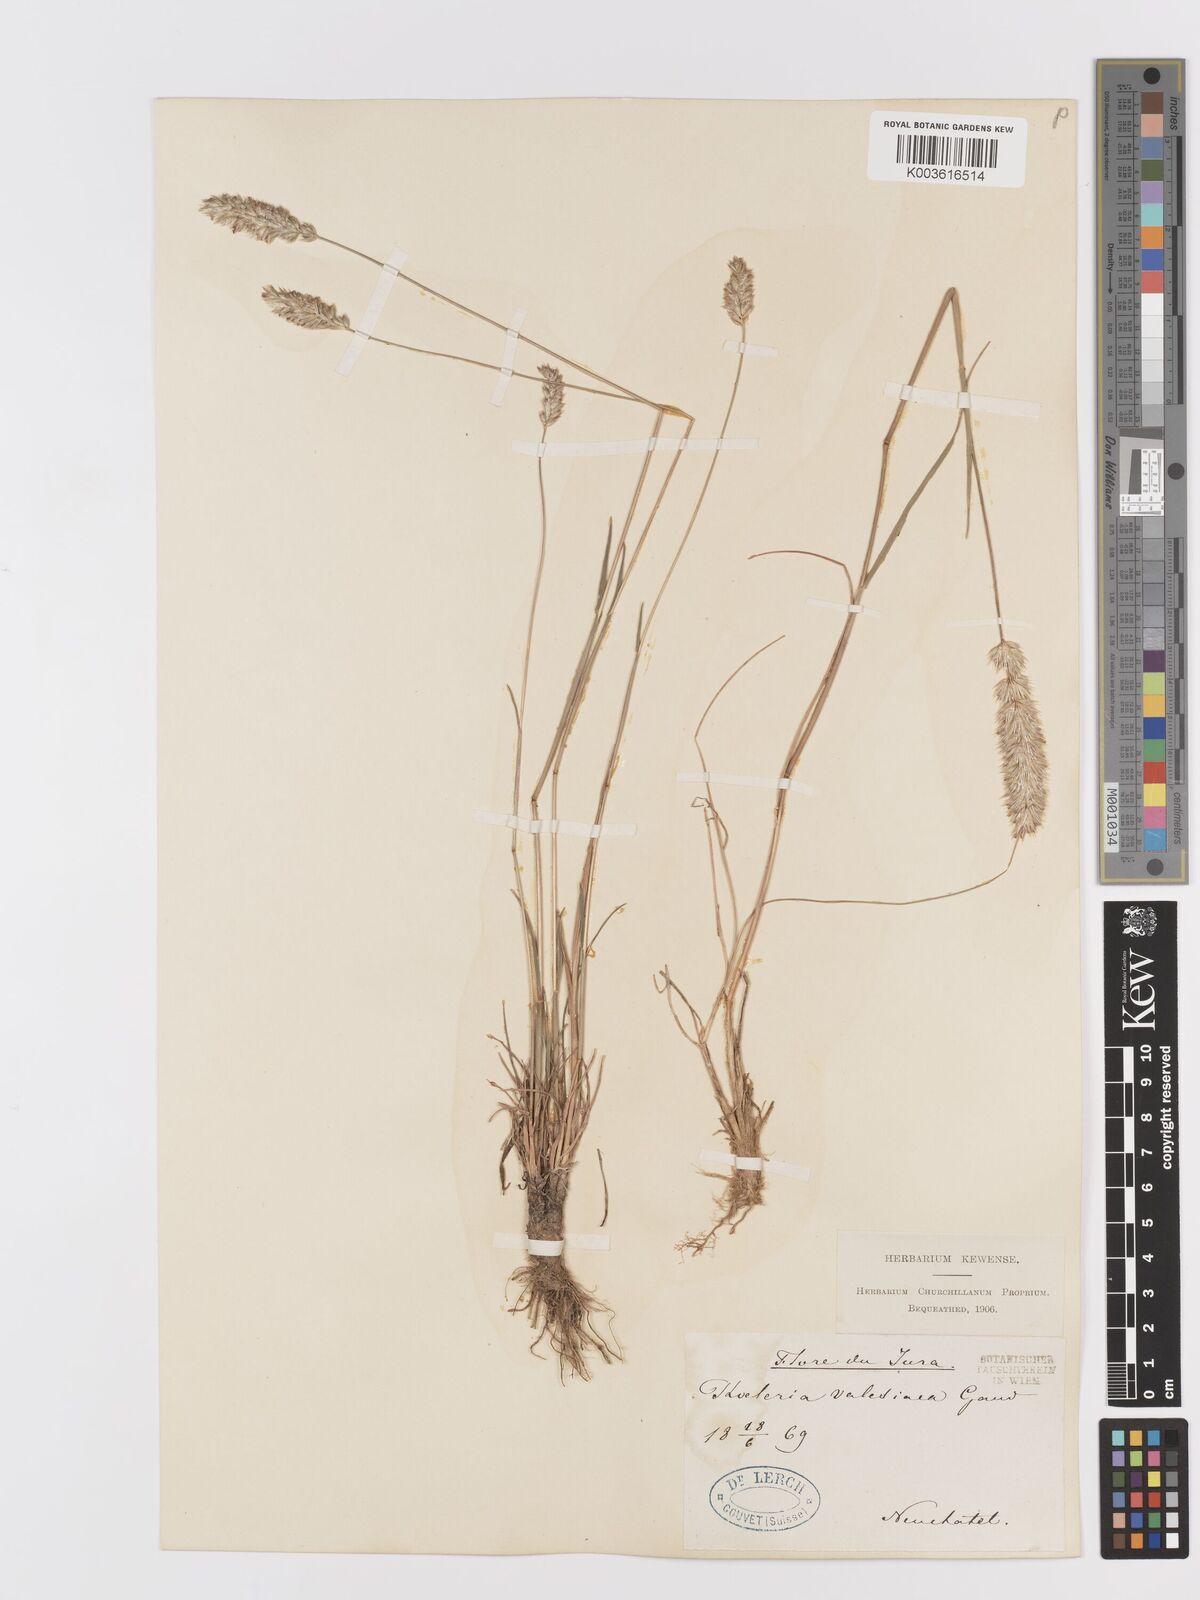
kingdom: Plantae
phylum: Tracheophyta
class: Liliopsida
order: Poales
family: Poaceae
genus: Koeleria
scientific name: Koeleria vallesiana
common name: Somerset hair-grass
